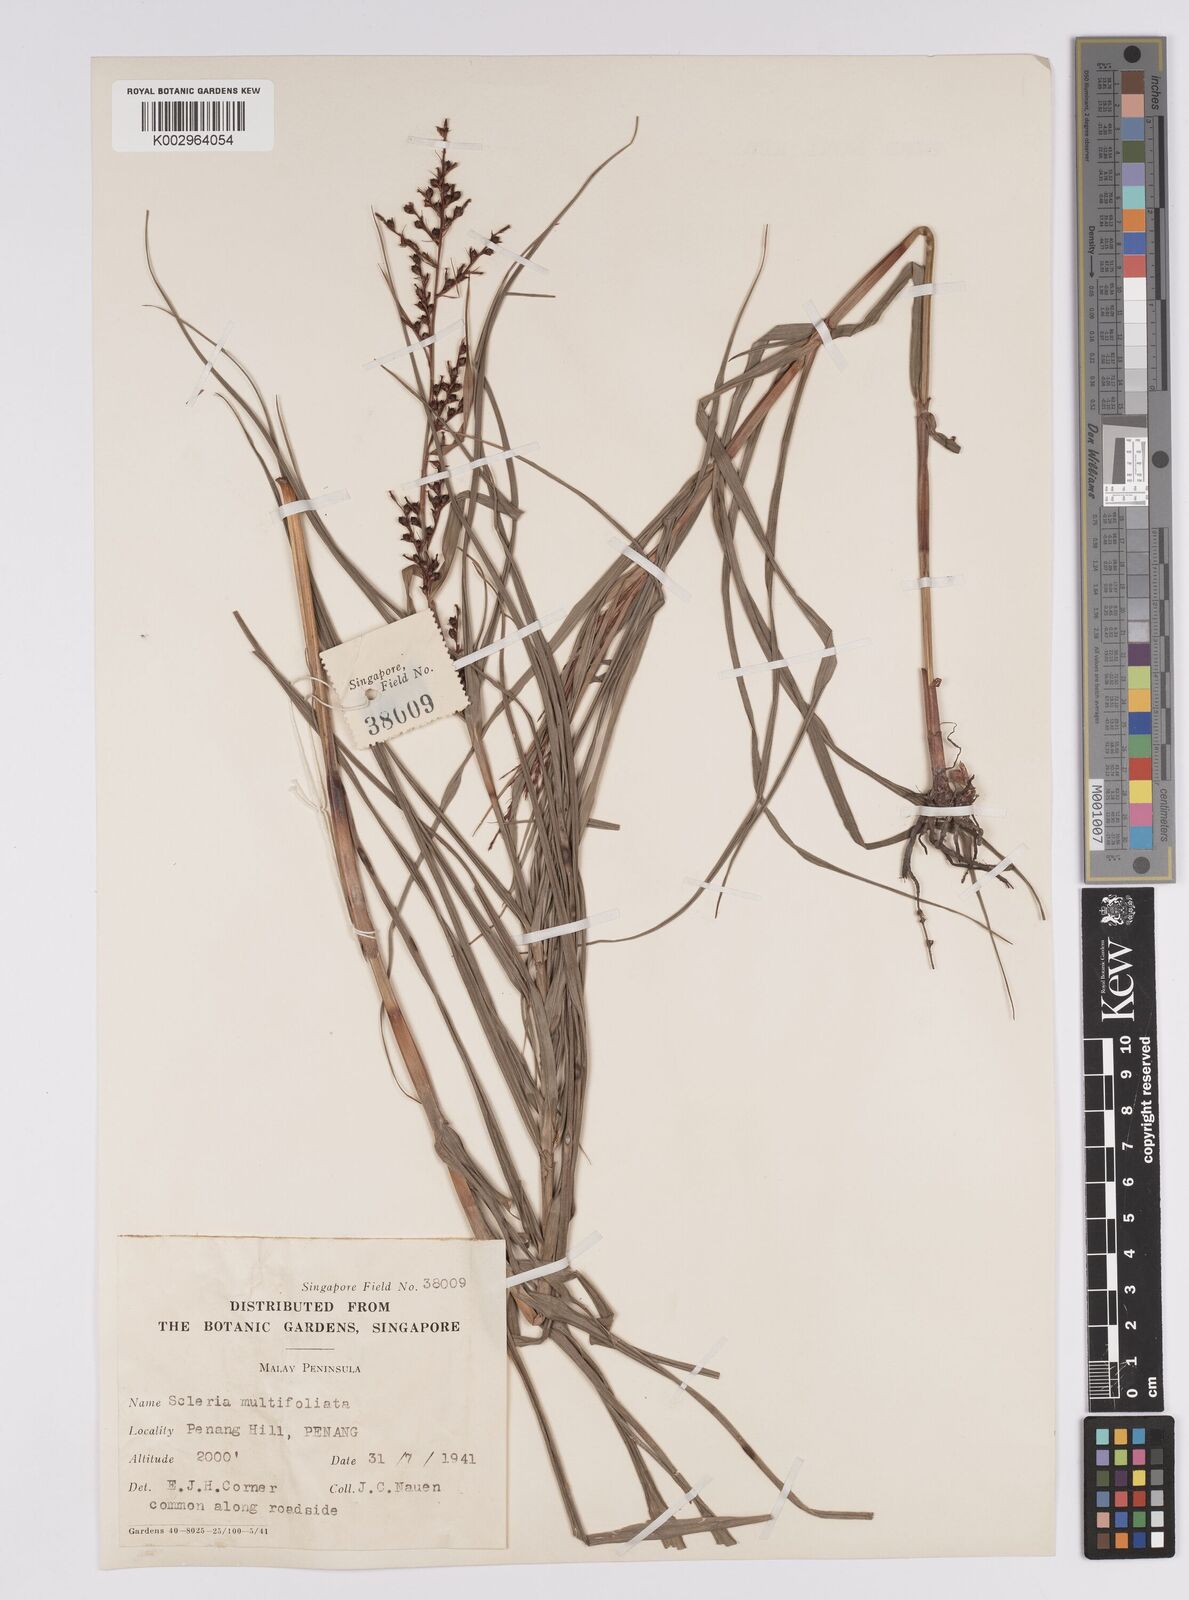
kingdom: Plantae
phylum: Tracheophyta
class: Liliopsida
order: Poales
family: Cyperaceae
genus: Scleria
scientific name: Scleria purpurascens
